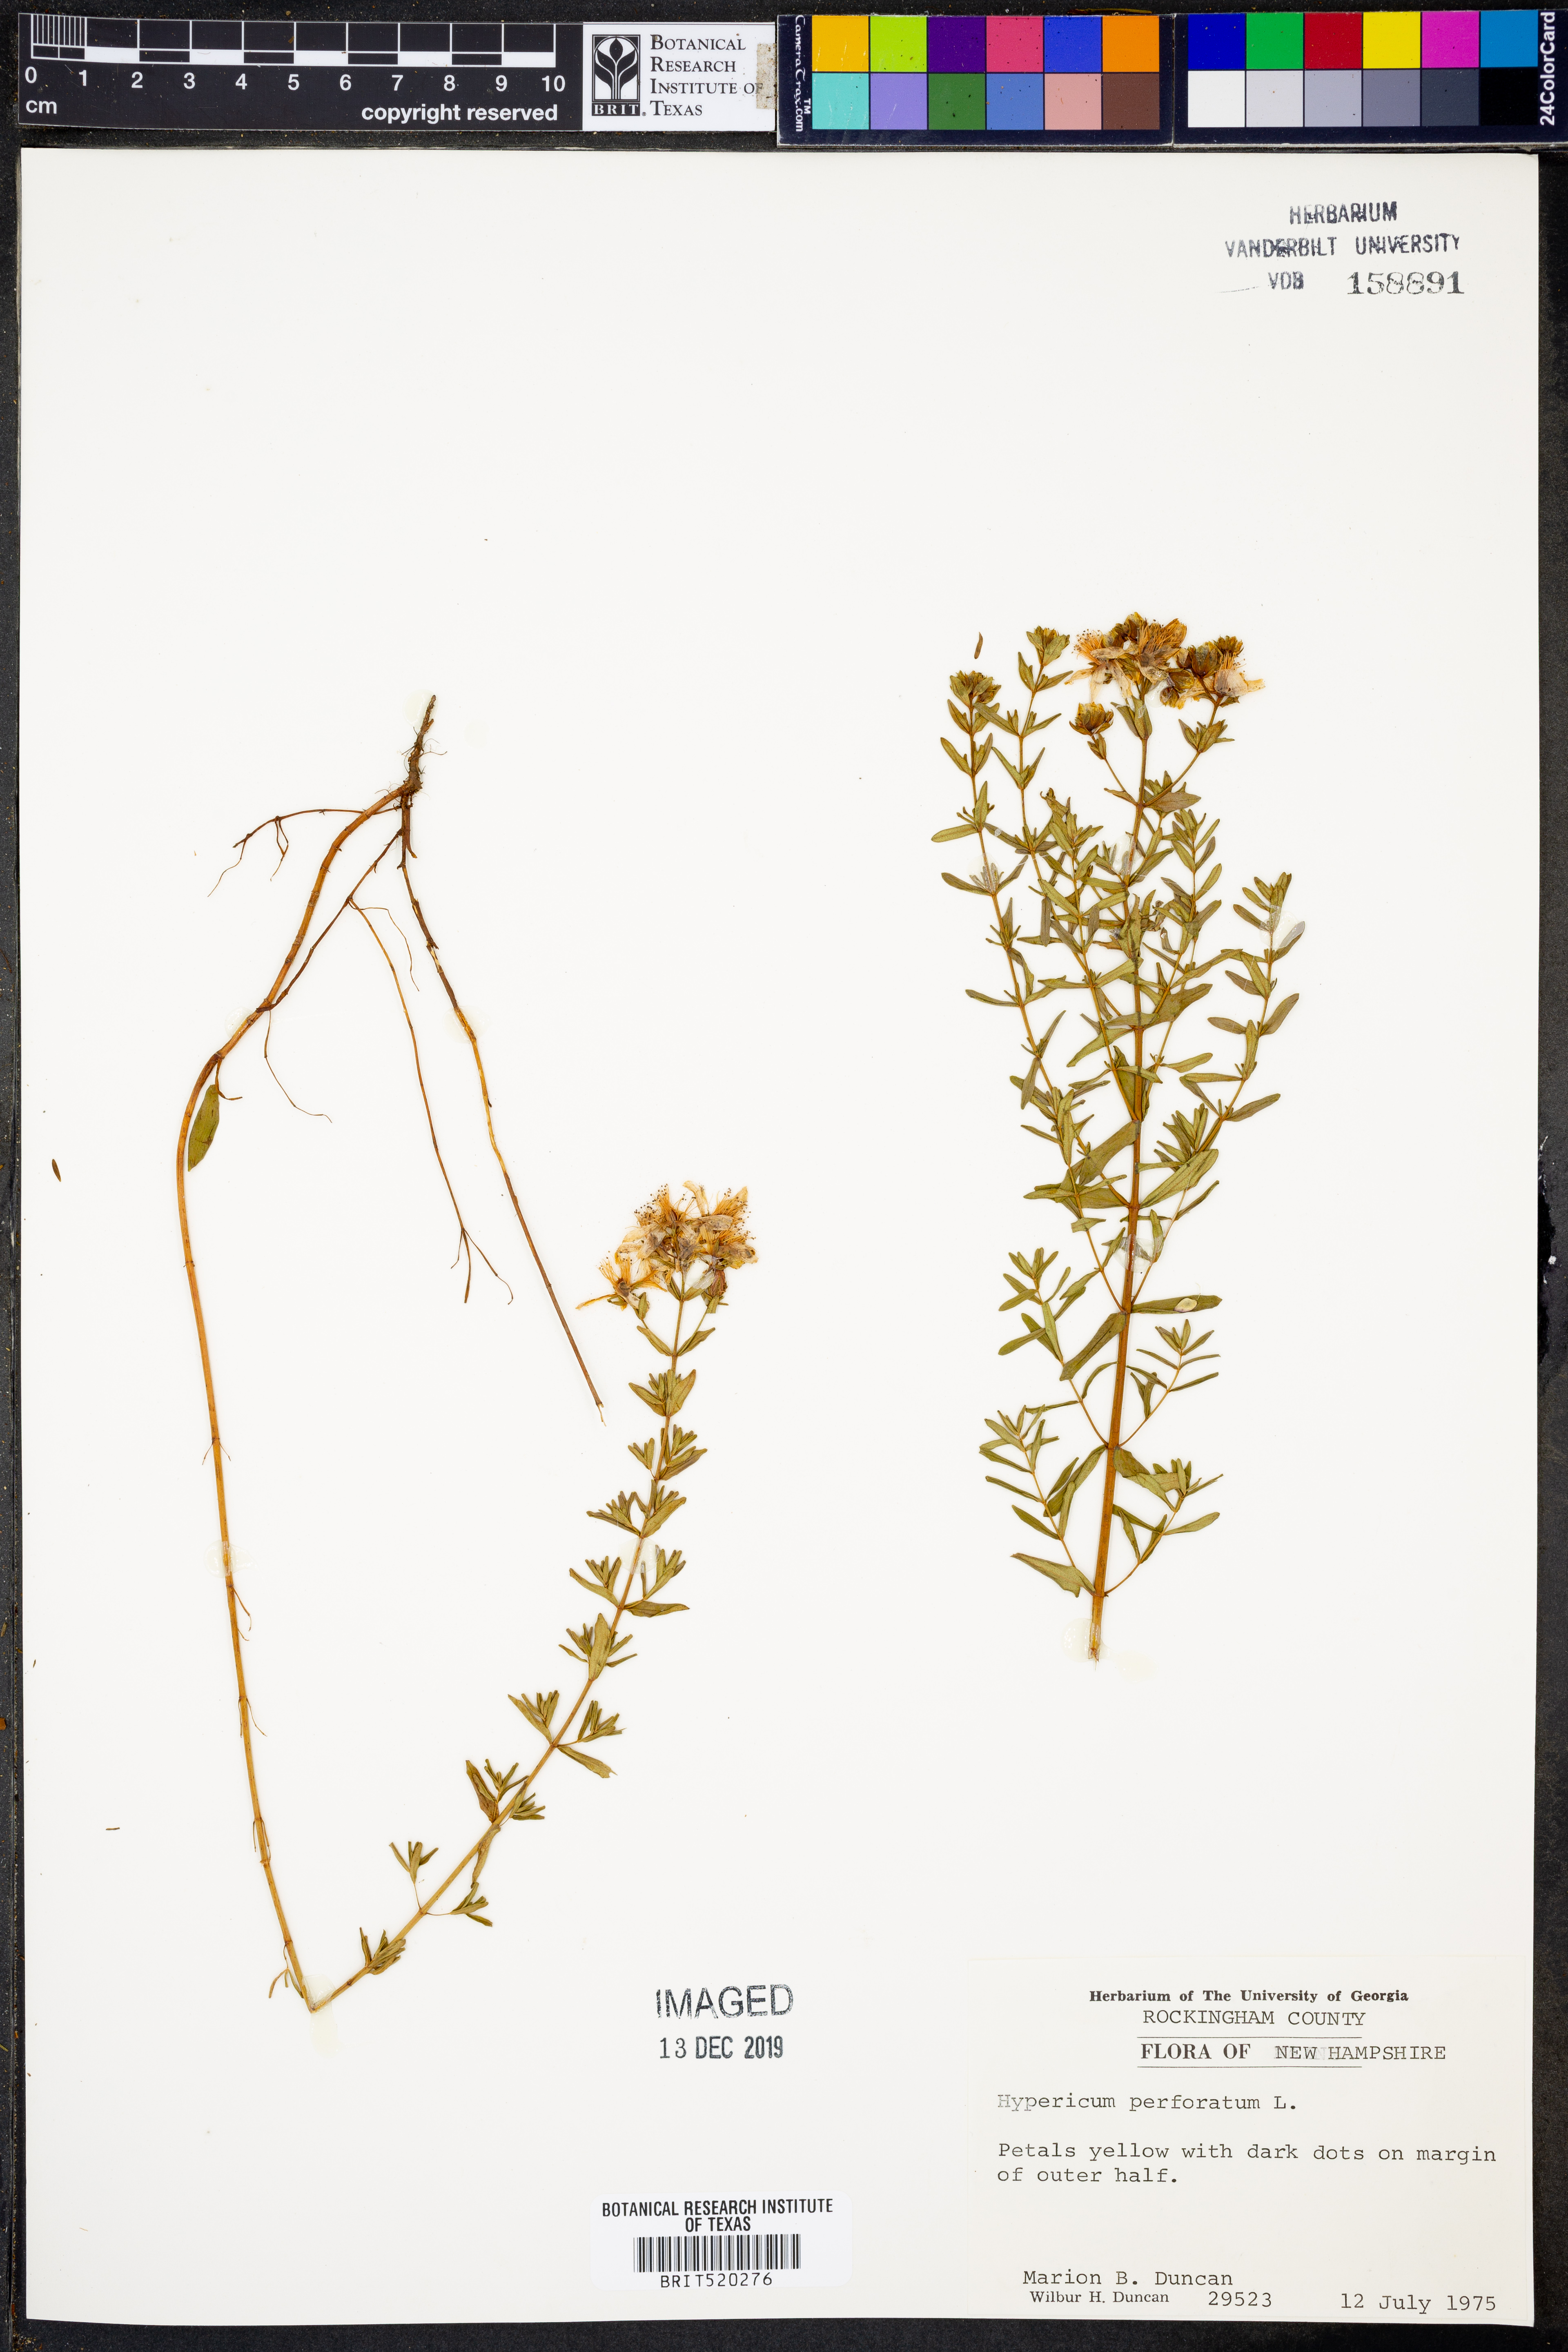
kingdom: Plantae
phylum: Tracheophyta
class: Magnoliopsida
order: Malpighiales
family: Hypericaceae
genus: Hypericum
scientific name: Hypericum perforatum
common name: Common st. johnswort
